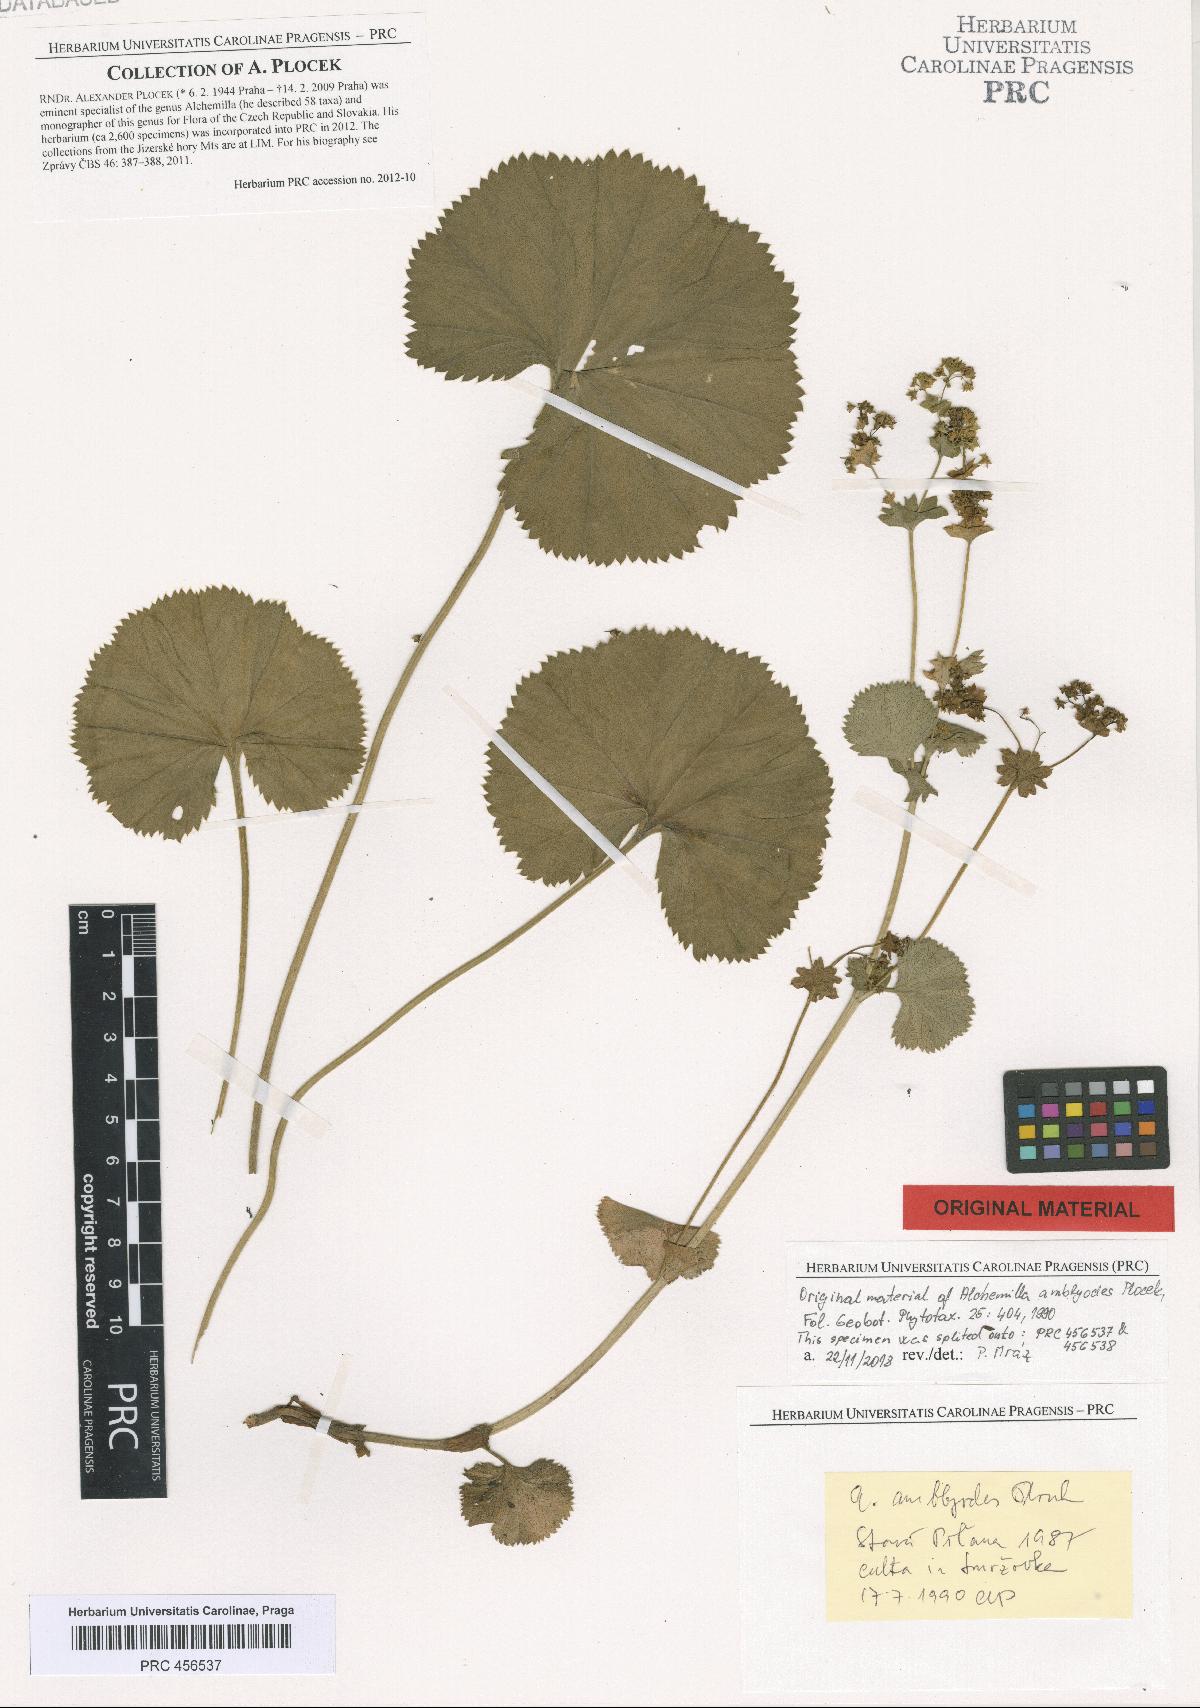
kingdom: Plantae
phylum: Tracheophyta
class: Magnoliopsida
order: Rosales
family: Rosaceae
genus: Alchemilla
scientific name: Alchemilla amblyodes
